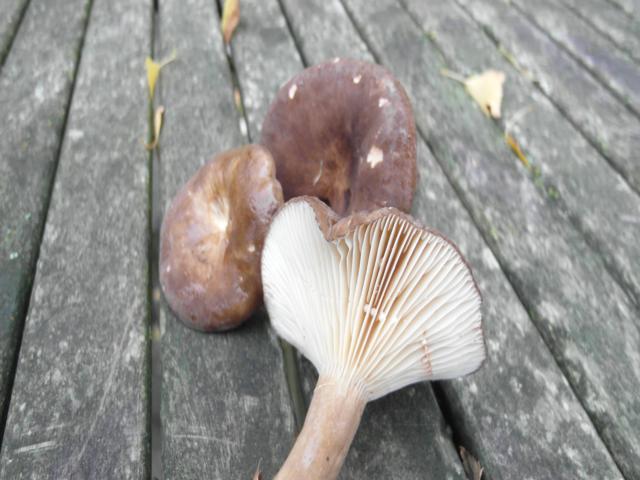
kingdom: Fungi
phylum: Basidiomycota
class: Agaricomycetes
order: Russulales
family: Russulaceae
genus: Lactarius
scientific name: Lactarius romagnesii
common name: fjernbladet mælkehat
